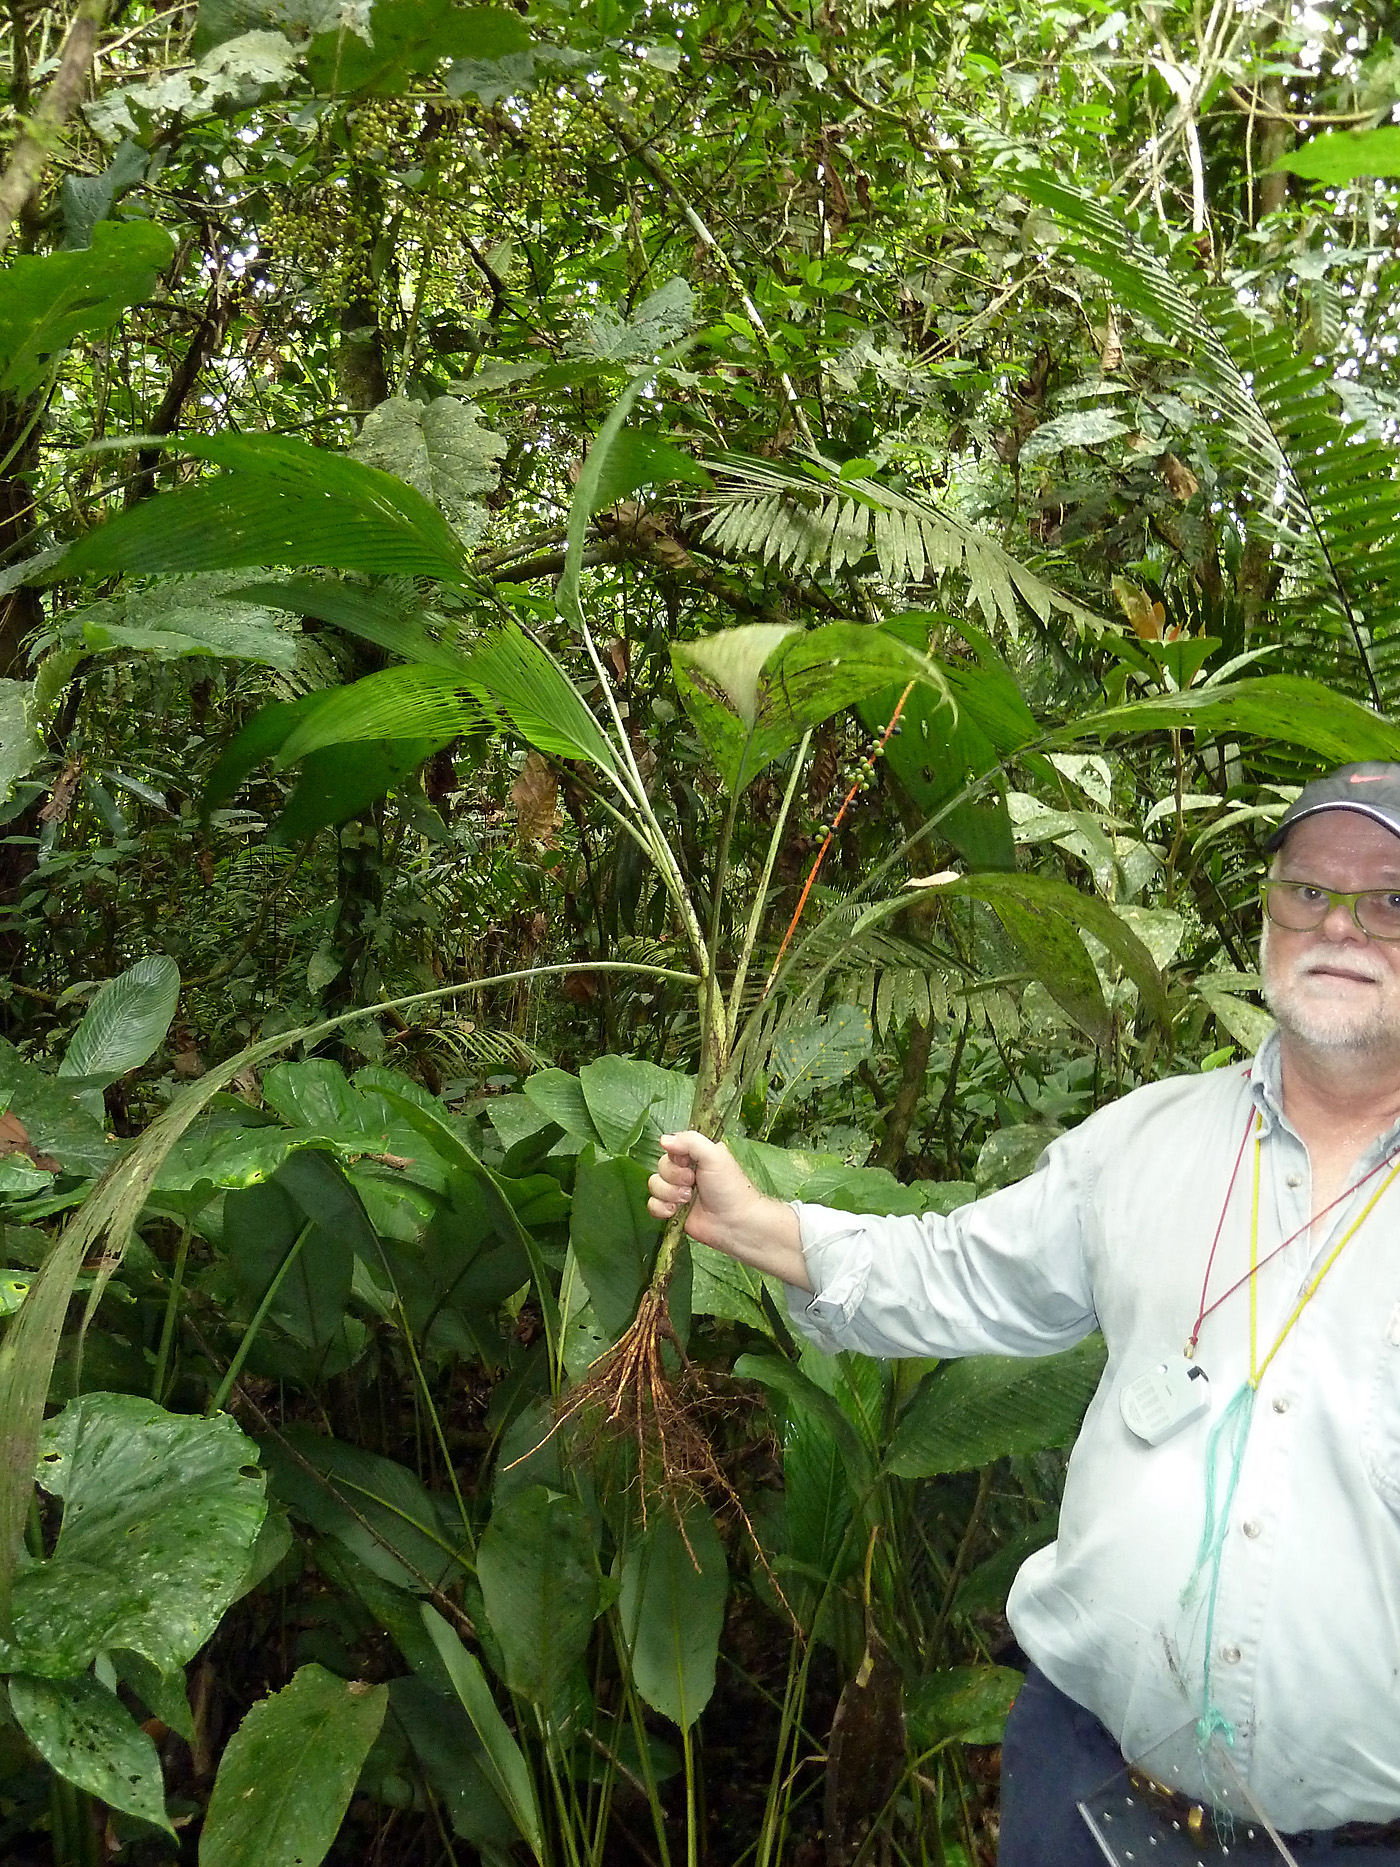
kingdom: Plantae
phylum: Tracheophyta
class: Liliopsida
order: Arecales
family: Arecaceae
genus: Chamaedorea
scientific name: Chamaedorea pauciflora
